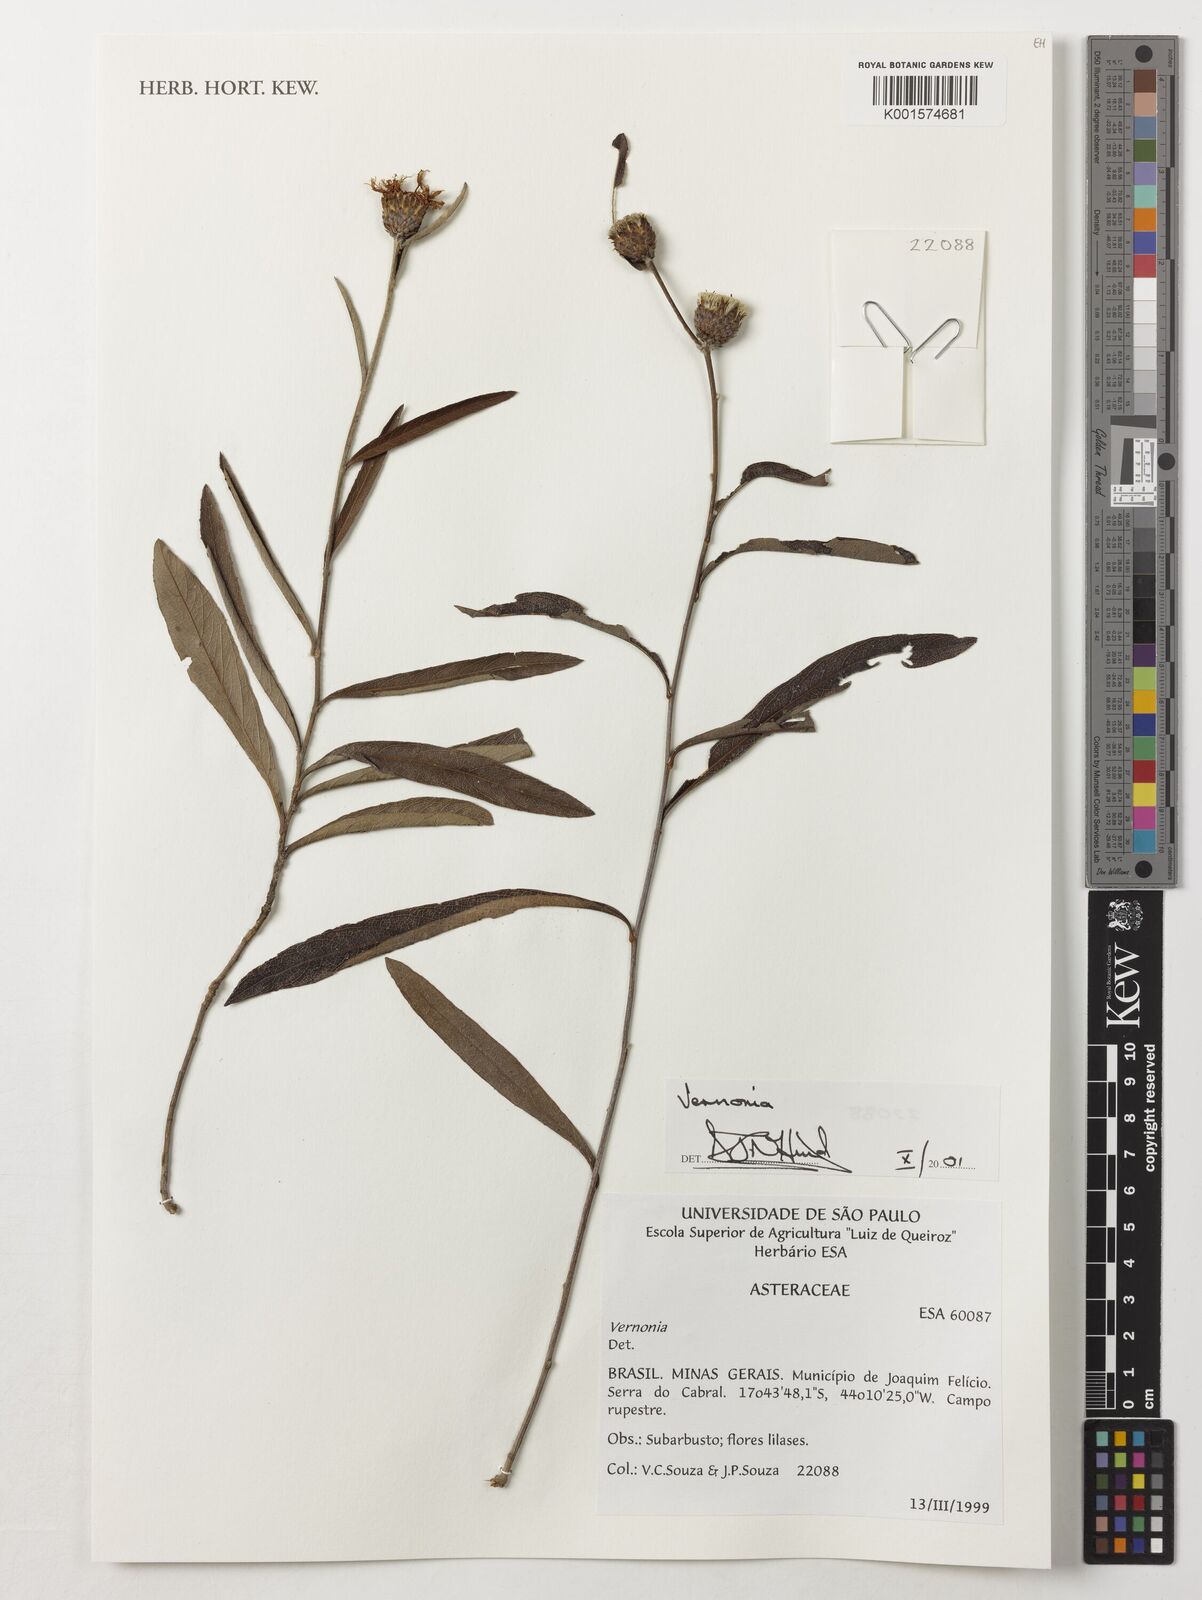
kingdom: Plantae
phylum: Tracheophyta
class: Magnoliopsida
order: Asterales
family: Asteraceae
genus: Vernonia
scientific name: Vernonia
